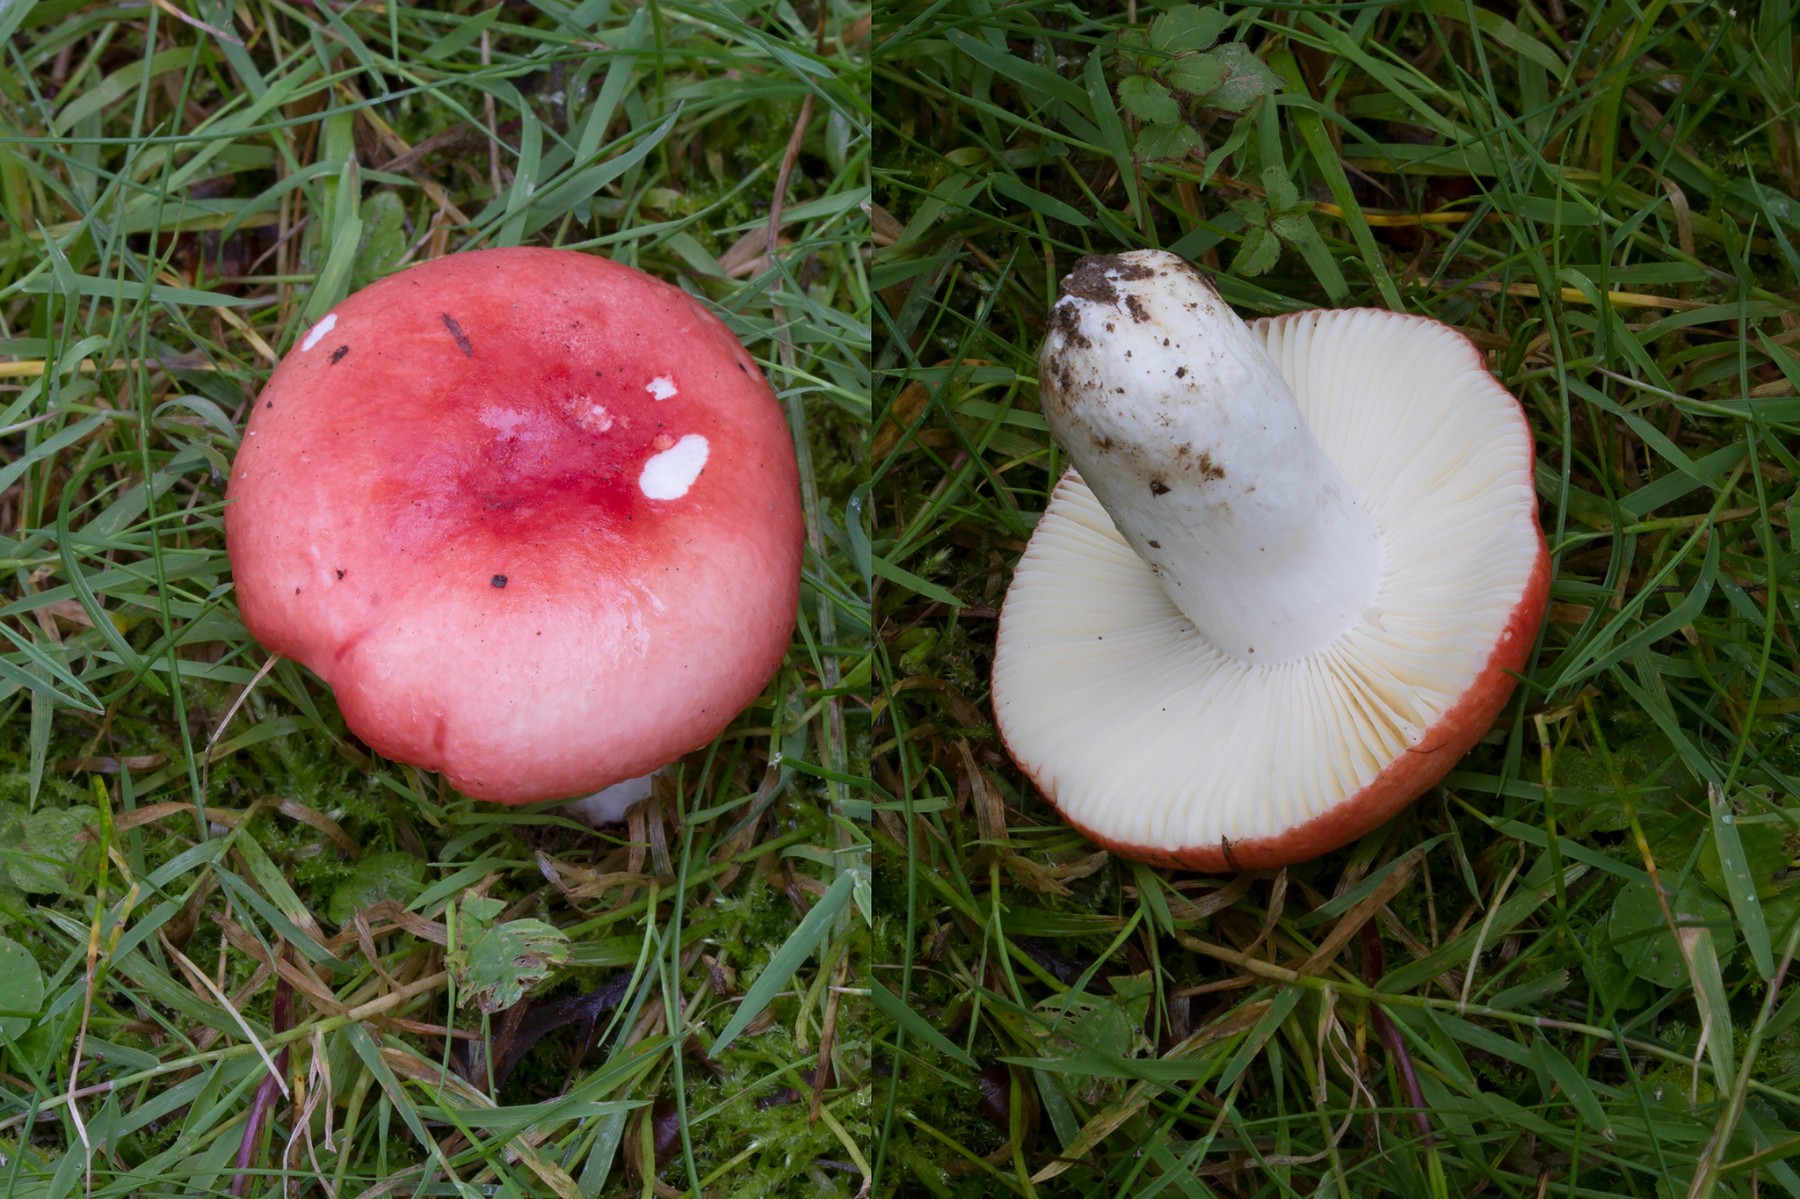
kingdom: Fungi
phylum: Basidiomycota
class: Agaricomycetes
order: Russulales
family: Russulaceae
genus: Russula
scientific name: Russula pseudointegra
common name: cinnoberrød skørhat
